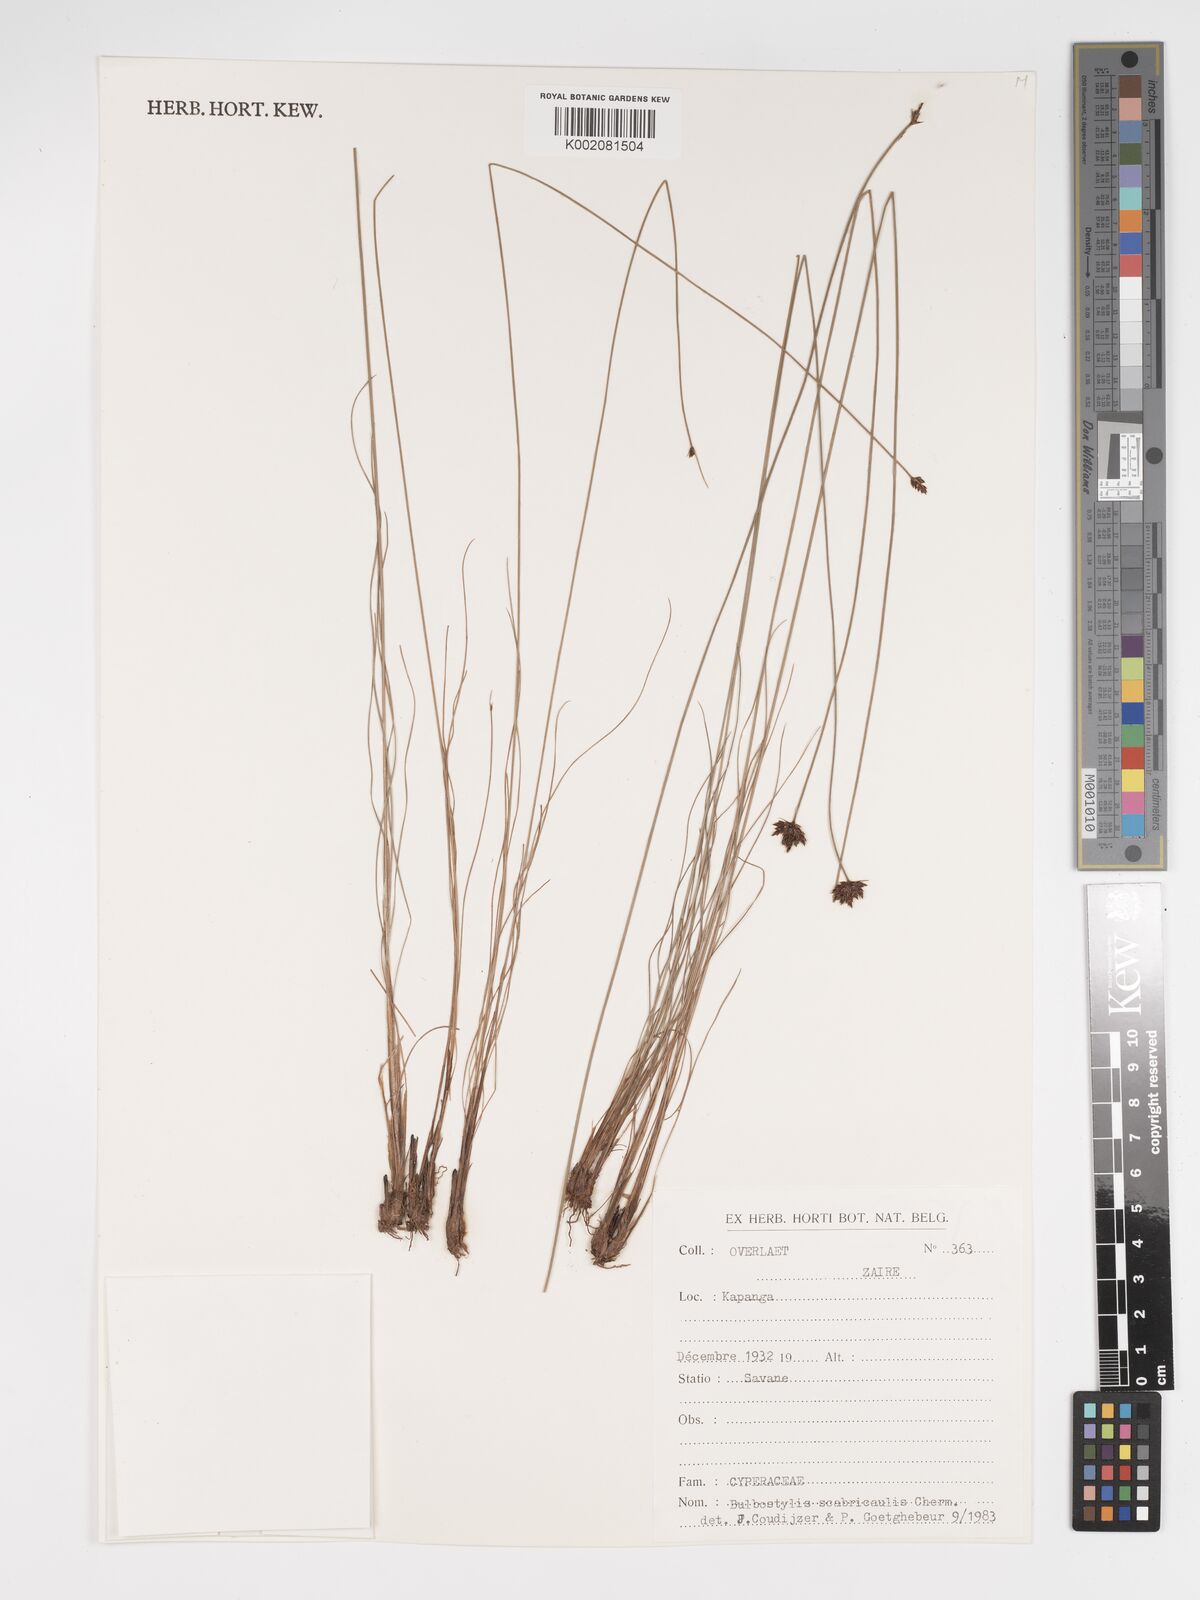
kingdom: Plantae
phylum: Tracheophyta
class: Liliopsida
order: Poales
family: Cyperaceae
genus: Bulbostylis
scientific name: Bulbostylis scabricaulis
